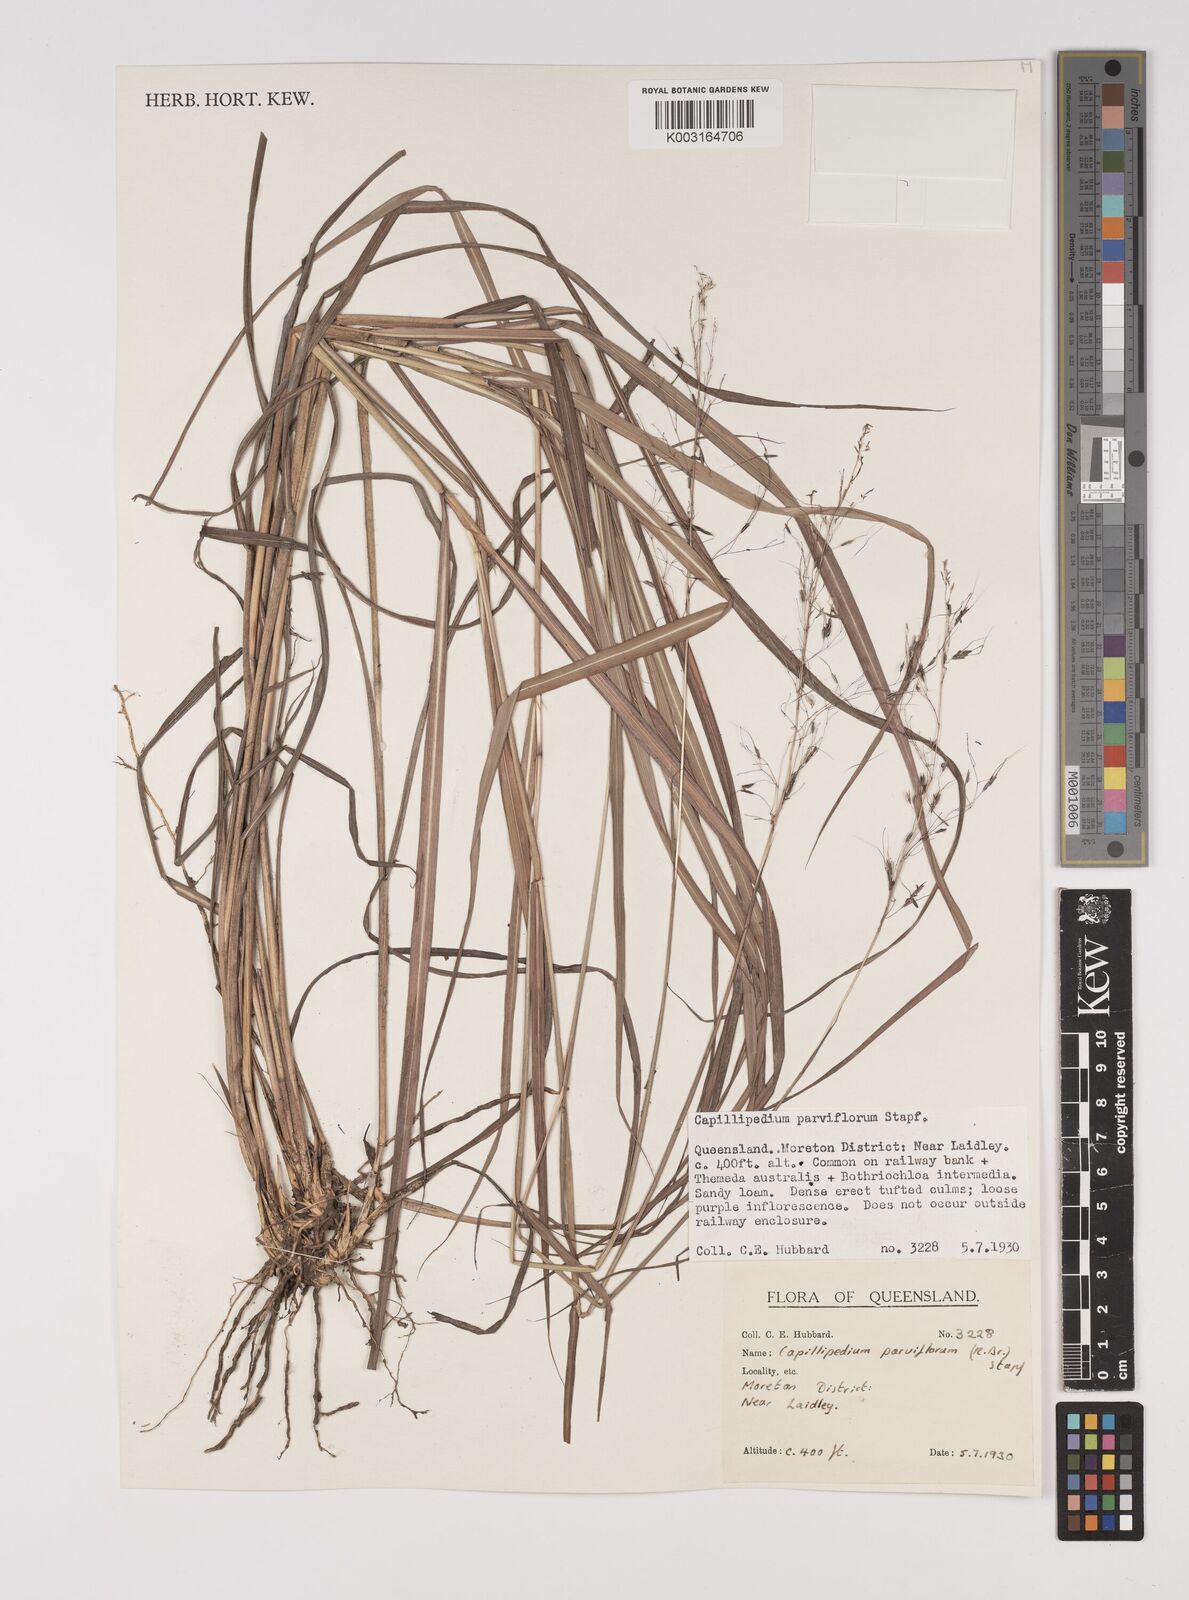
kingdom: Plantae
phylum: Tracheophyta
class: Liliopsida
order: Poales
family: Poaceae
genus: Capillipedium
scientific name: Capillipedium parviflorum
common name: Golden-beard
